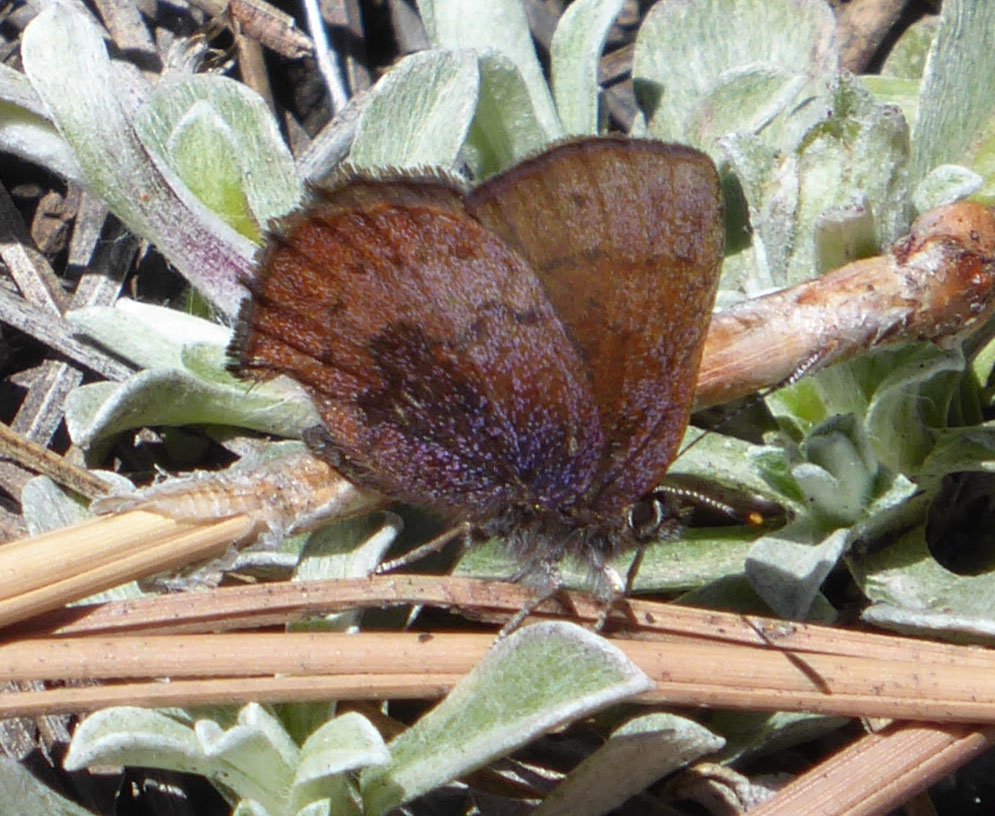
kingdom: Animalia
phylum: Arthropoda
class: Insecta
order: Lepidoptera
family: Lycaenidae
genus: Incisalia
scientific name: Incisalia irioides
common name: Brown Elfin
